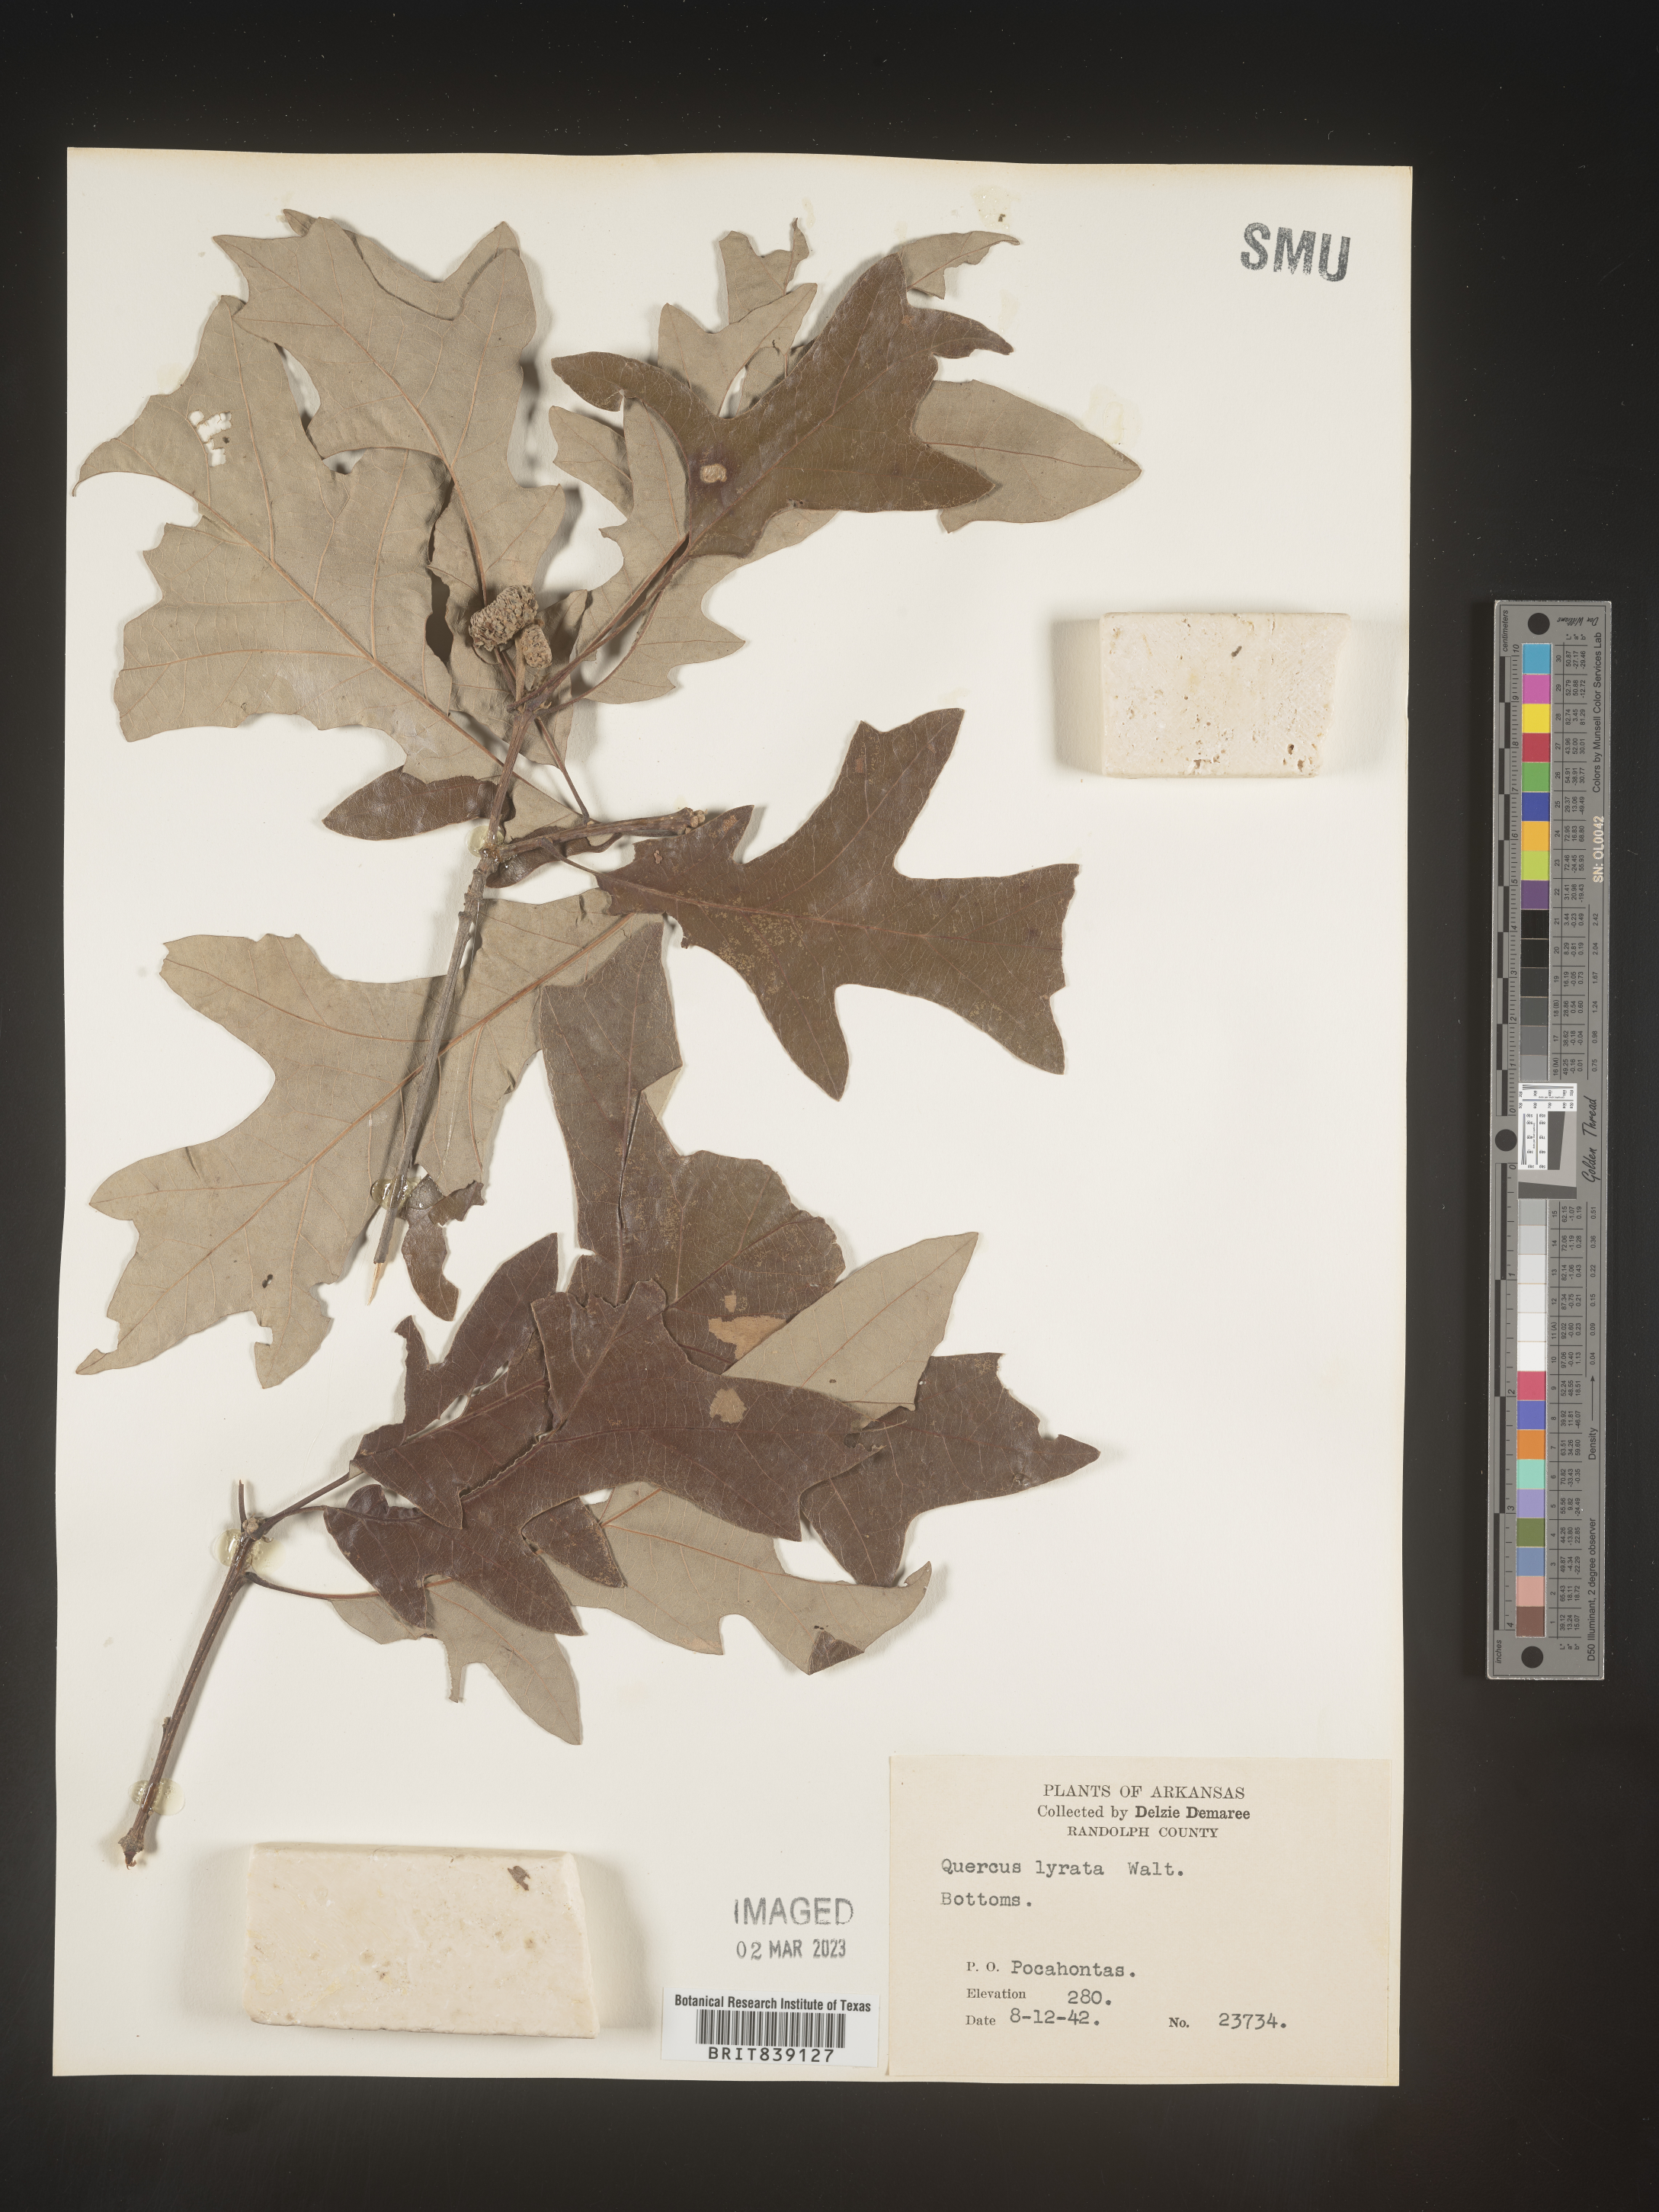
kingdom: Plantae
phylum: Tracheophyta
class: Magnoliopsida
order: Fagales
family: Fagaceae
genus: Quercus
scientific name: Quercus lyrata
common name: Overcup oak
